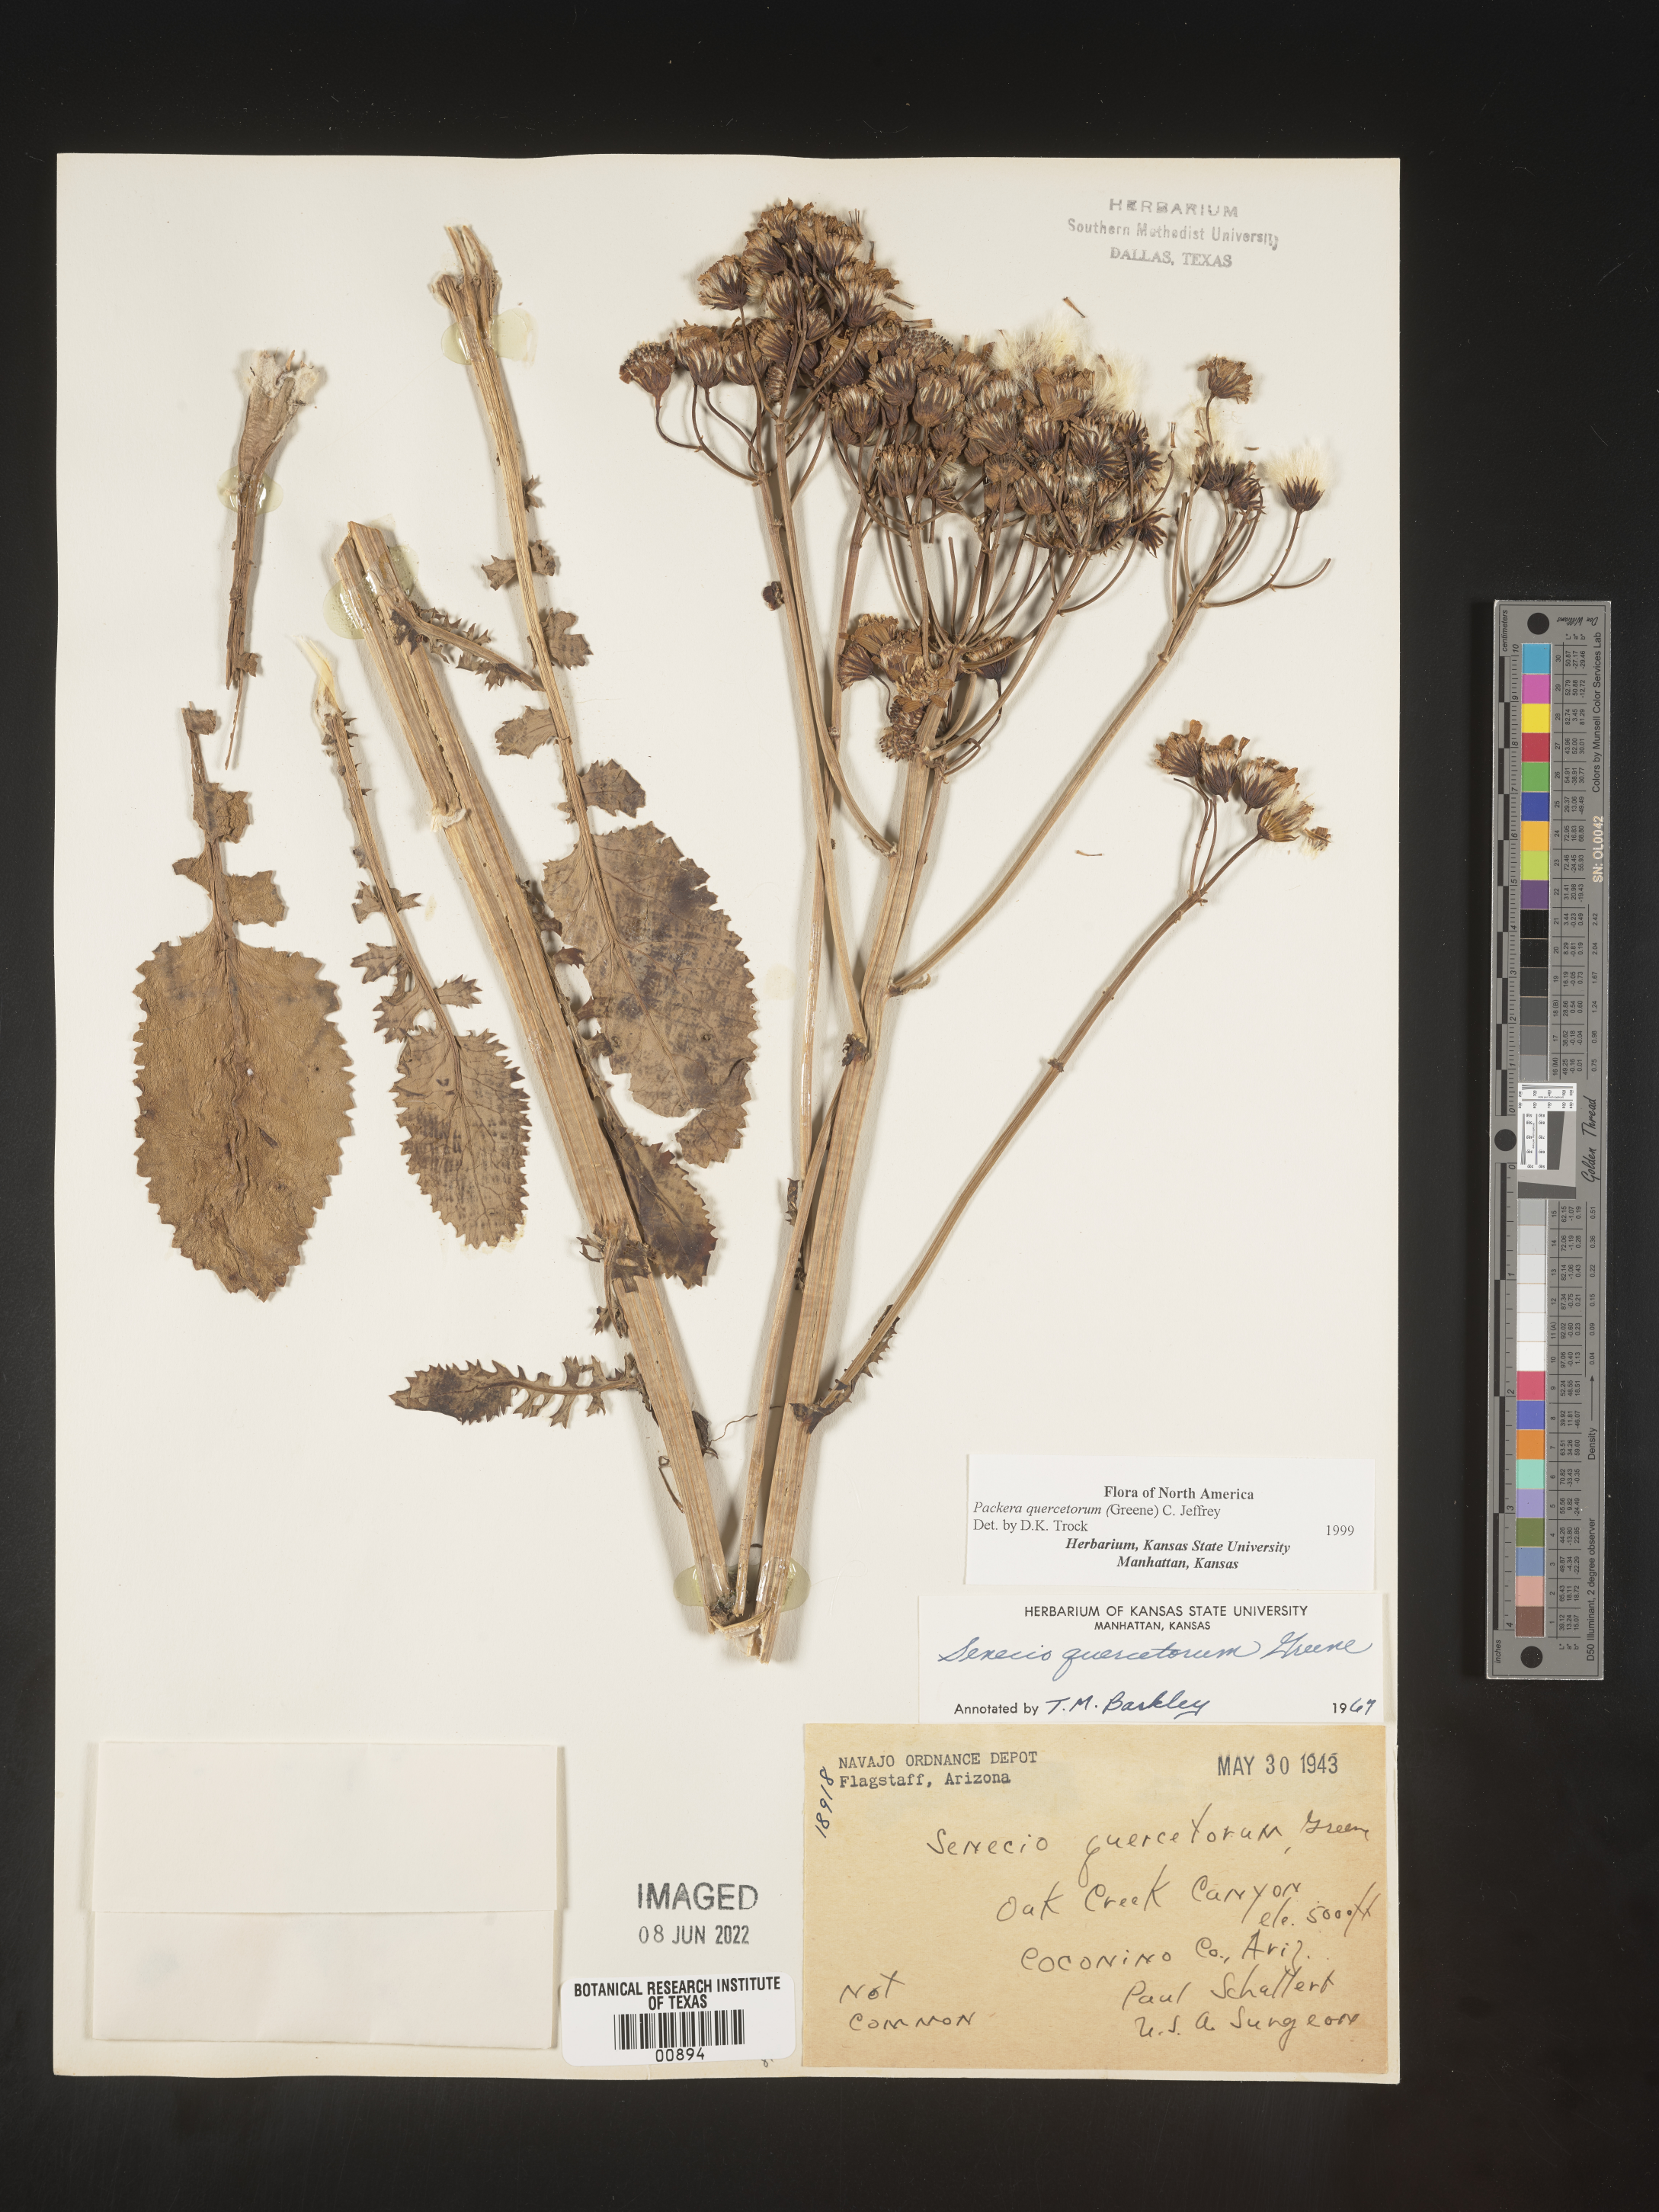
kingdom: Plantae
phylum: Tracheophyta
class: Magnoliopsida
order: Asterales
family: Asteraceae
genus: Packera
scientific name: Packera quercetorum
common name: Oak creek ragwort
